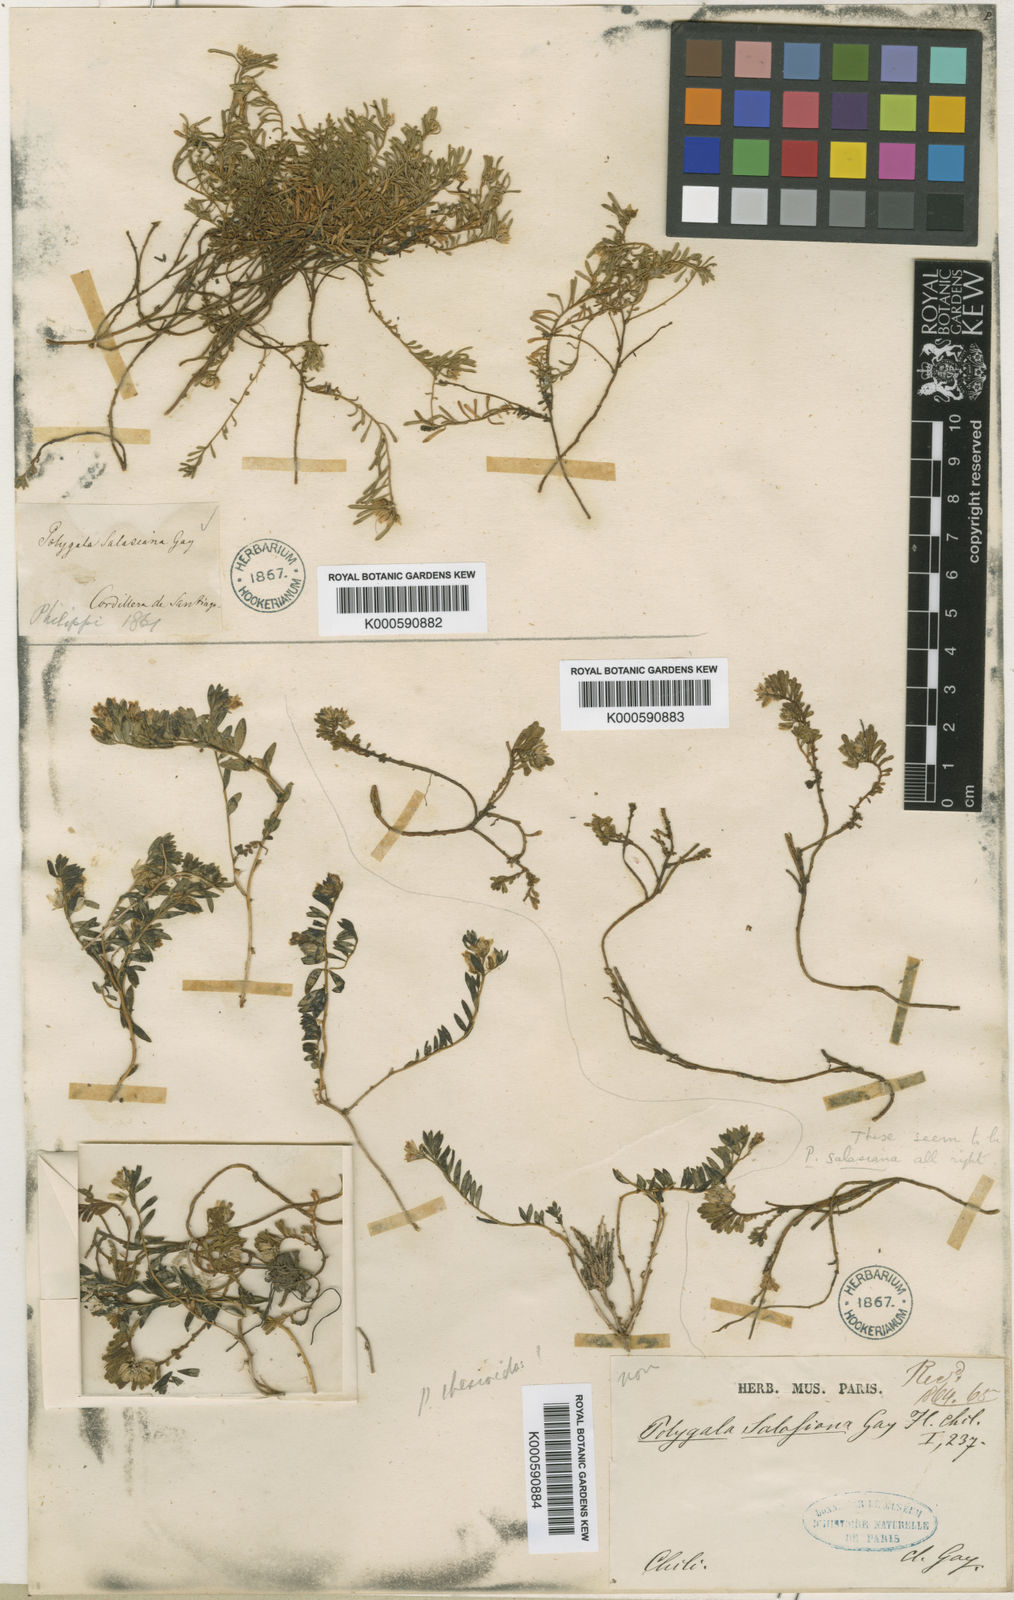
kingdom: Plantae
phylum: Tracheophyta
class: Magnoliopsida
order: Fabales
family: Polygalaceae
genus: Polygala
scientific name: Polygala salasiana
